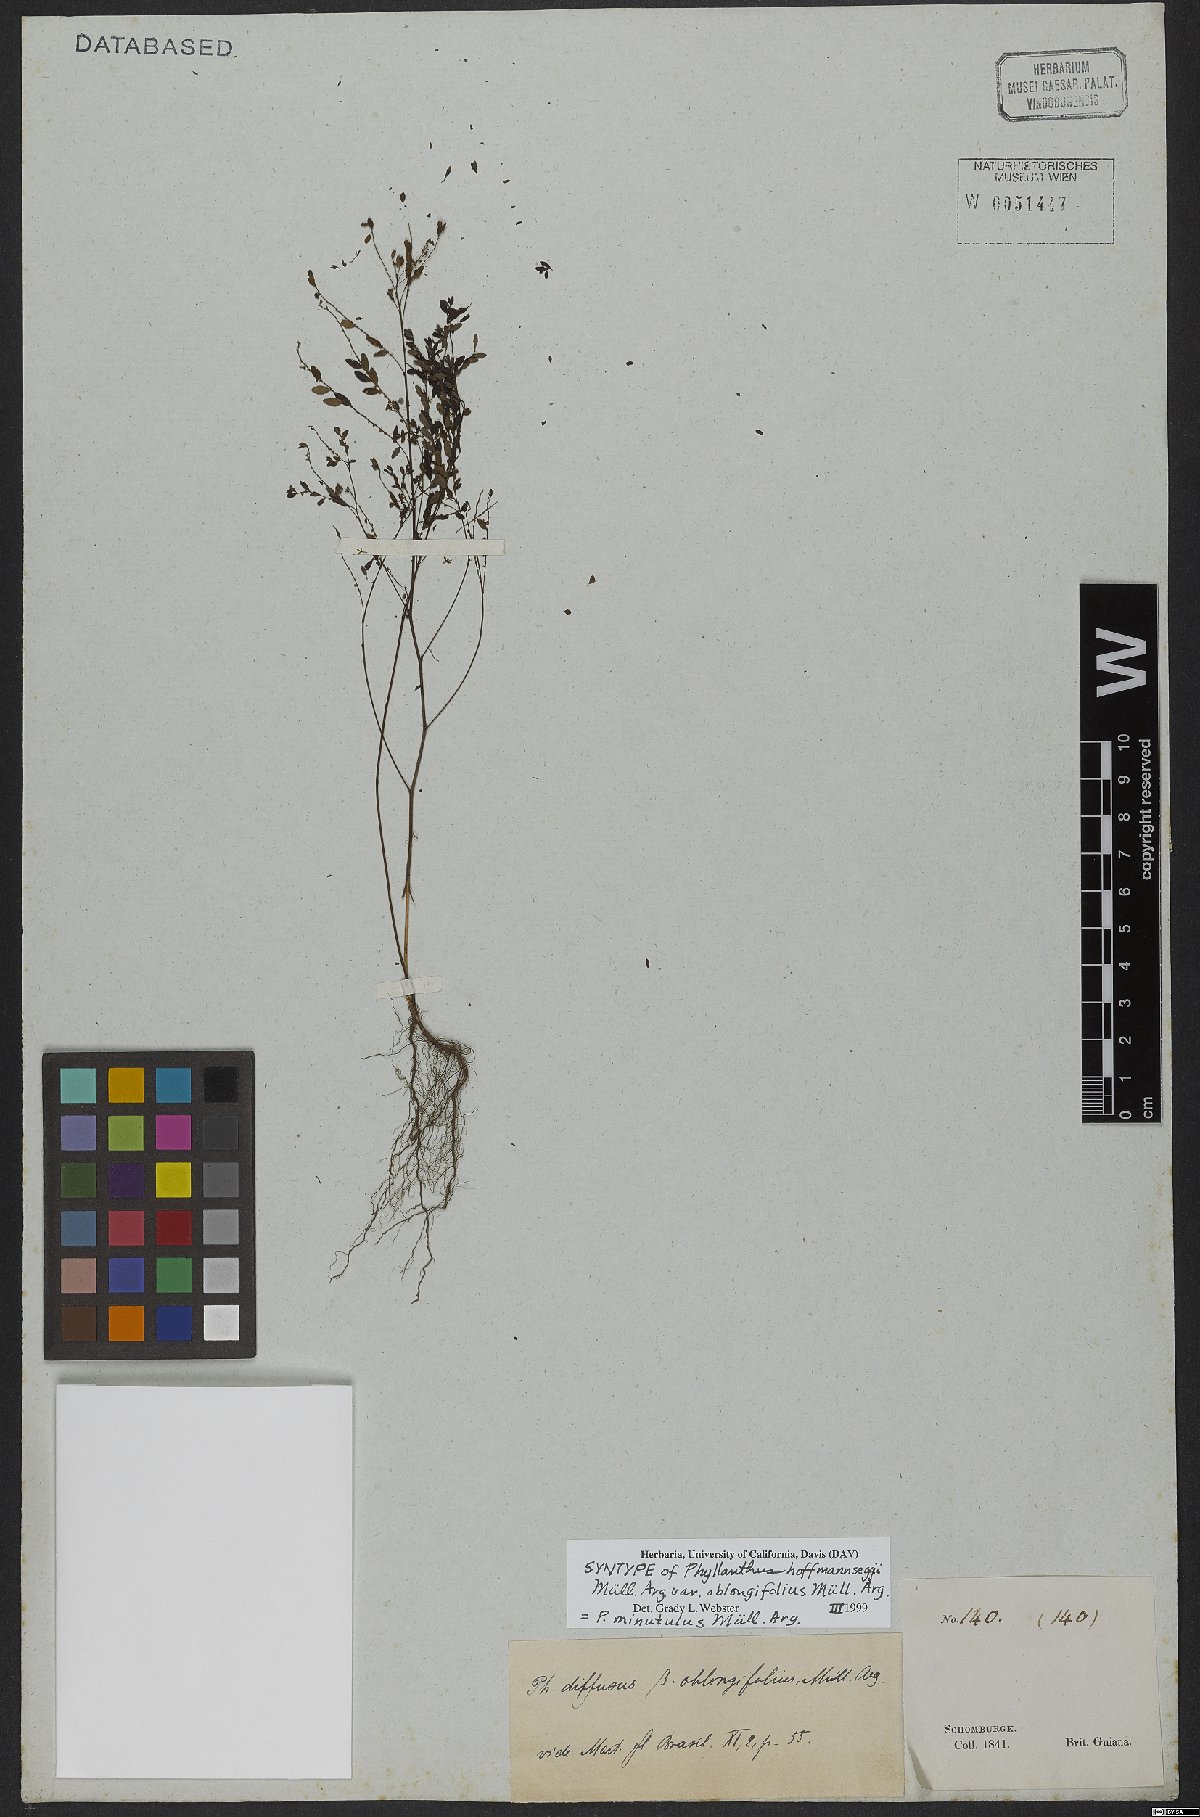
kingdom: Plantae
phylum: Tracheophyta
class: Magnoliopsida
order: Malpighiales
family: Phyllanthaceae
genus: Phyllanthus
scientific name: Phyllanthus minutulus
